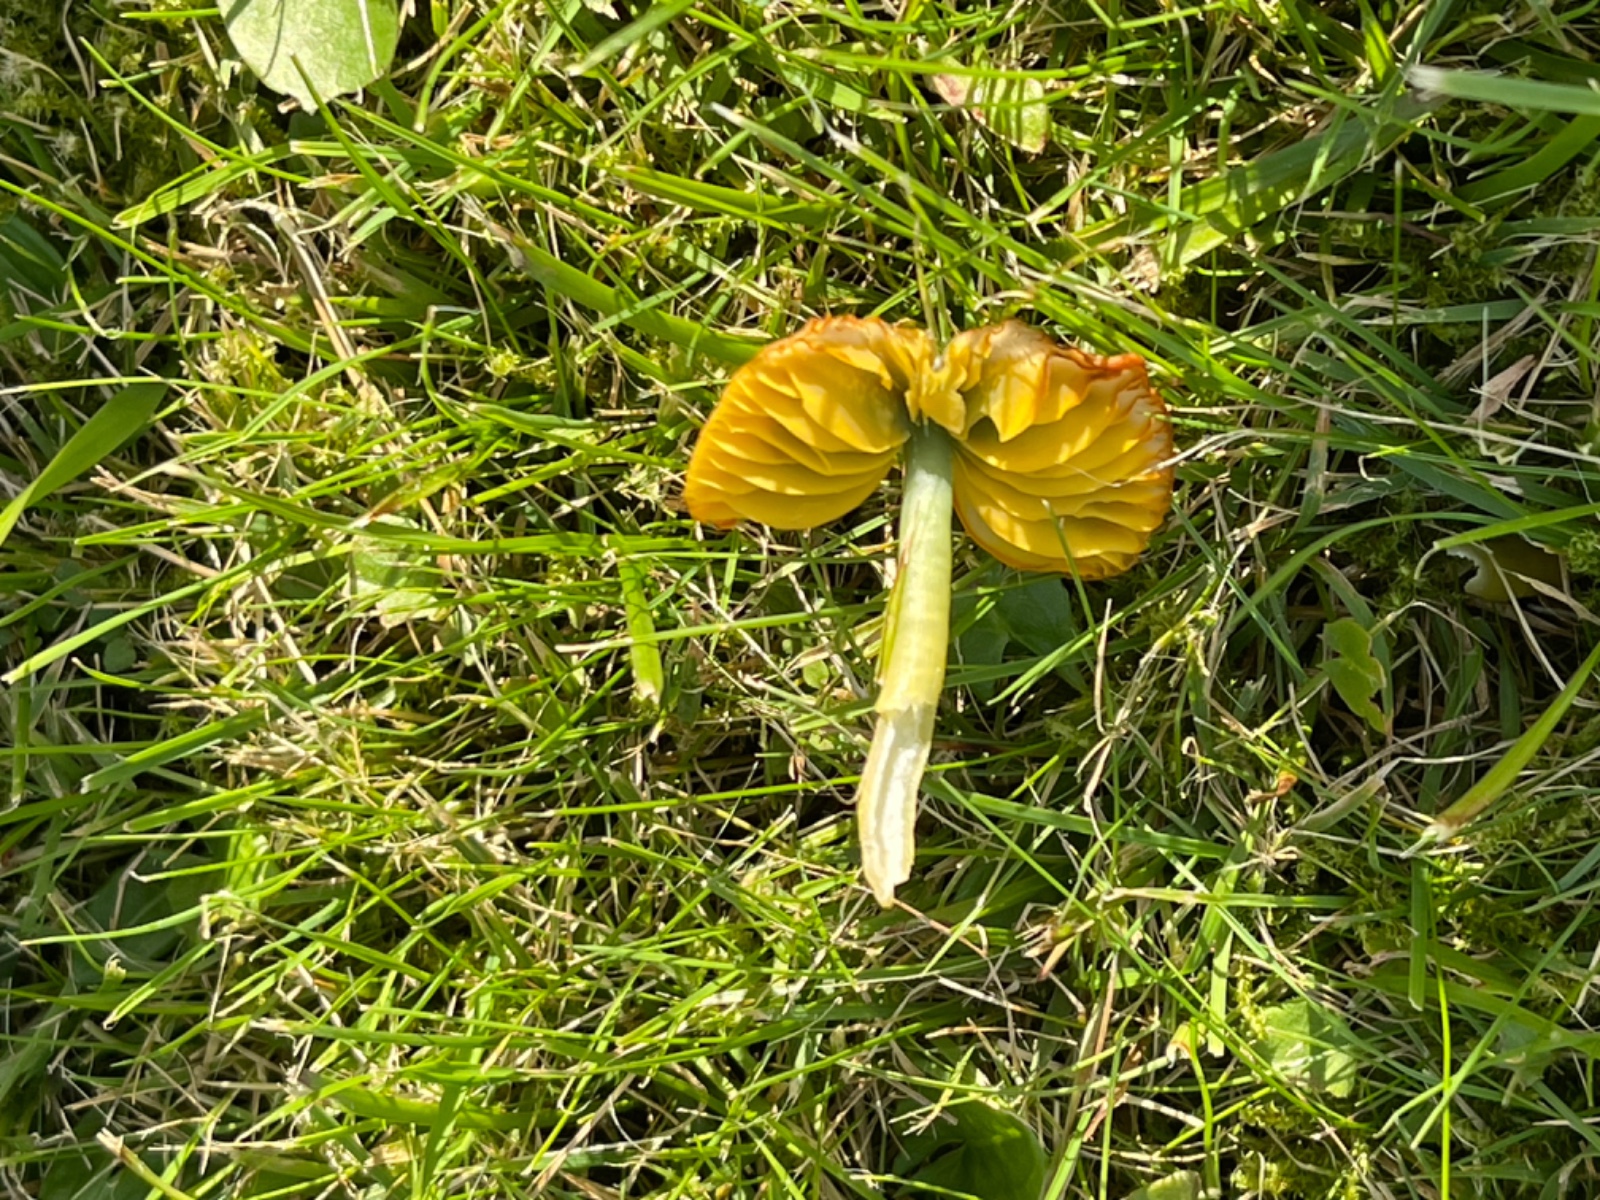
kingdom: Fungi
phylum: Basidiomycota
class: Agaricomycetes
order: Agaricales
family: Hygrophoraceae
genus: Gliophorus
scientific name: Gliophorus psittacinus
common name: papegøje-vokshat
